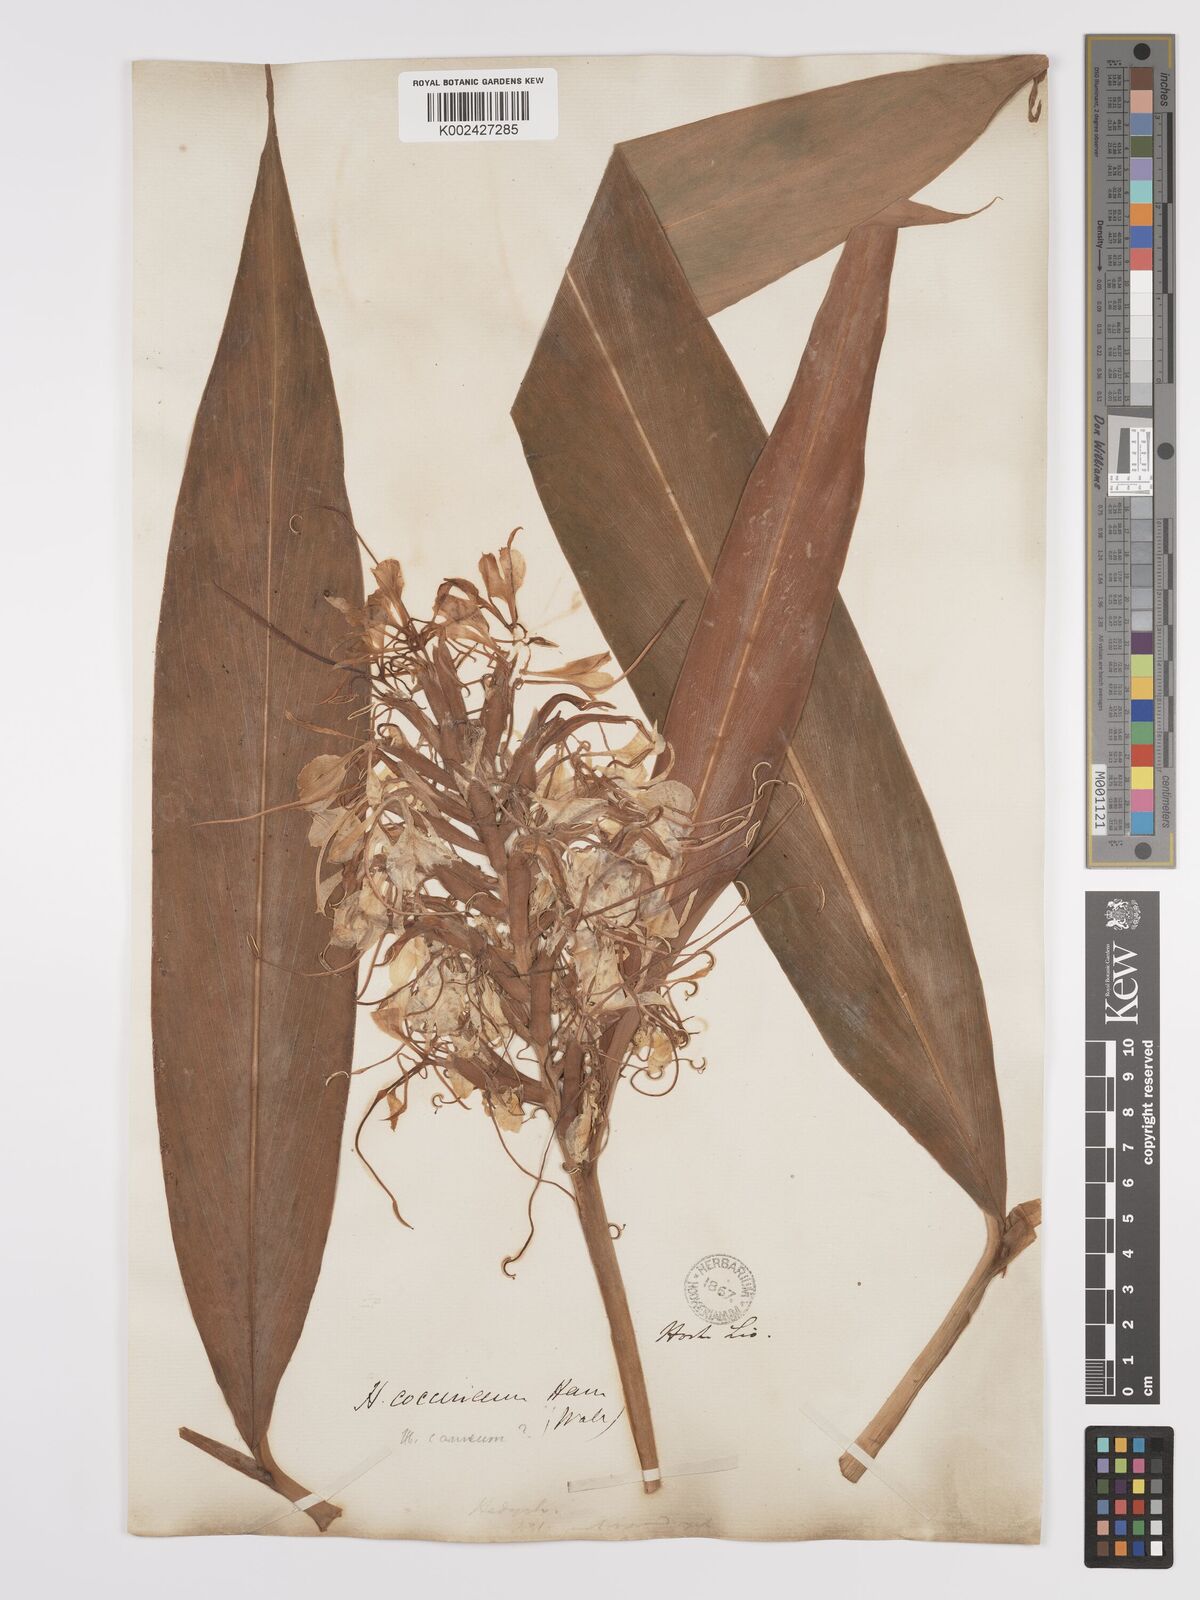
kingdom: Plantae
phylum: Tracheophyta
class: Liliopsida
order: Zingiberales
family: Zingiberaceae
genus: Hedychium
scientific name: Hedychium coccineum
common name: Red ginger-lily
